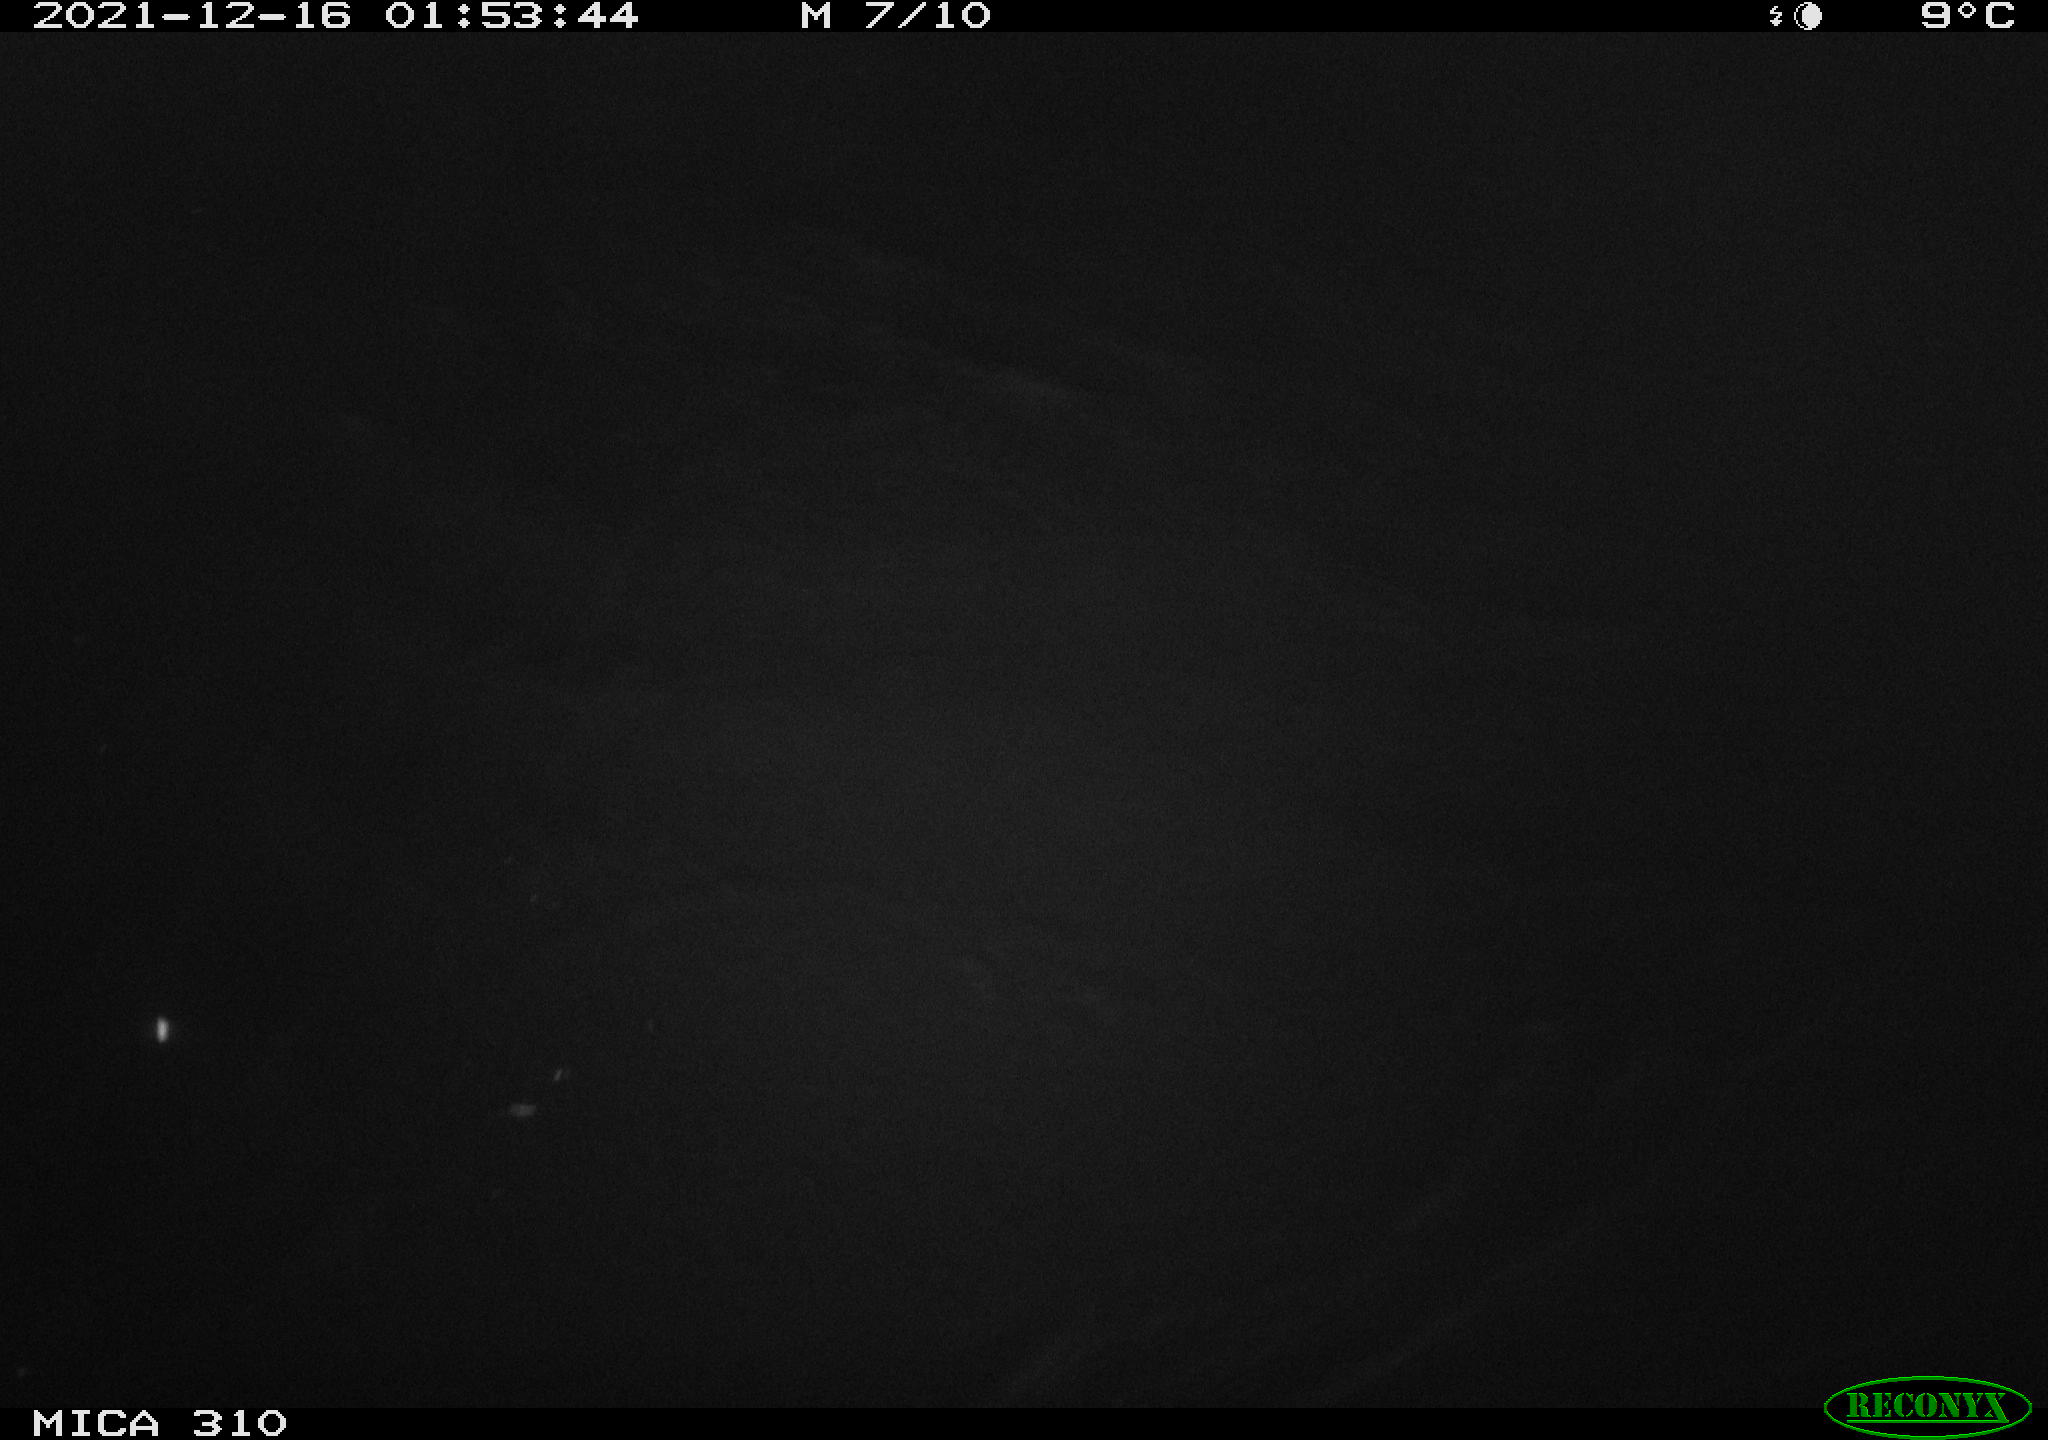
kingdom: Animalia
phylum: Chordata
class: Mammalia
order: Rodentia
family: Cricetidae
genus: Ondatra
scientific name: Ondatra zibethicus
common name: Muskrat
